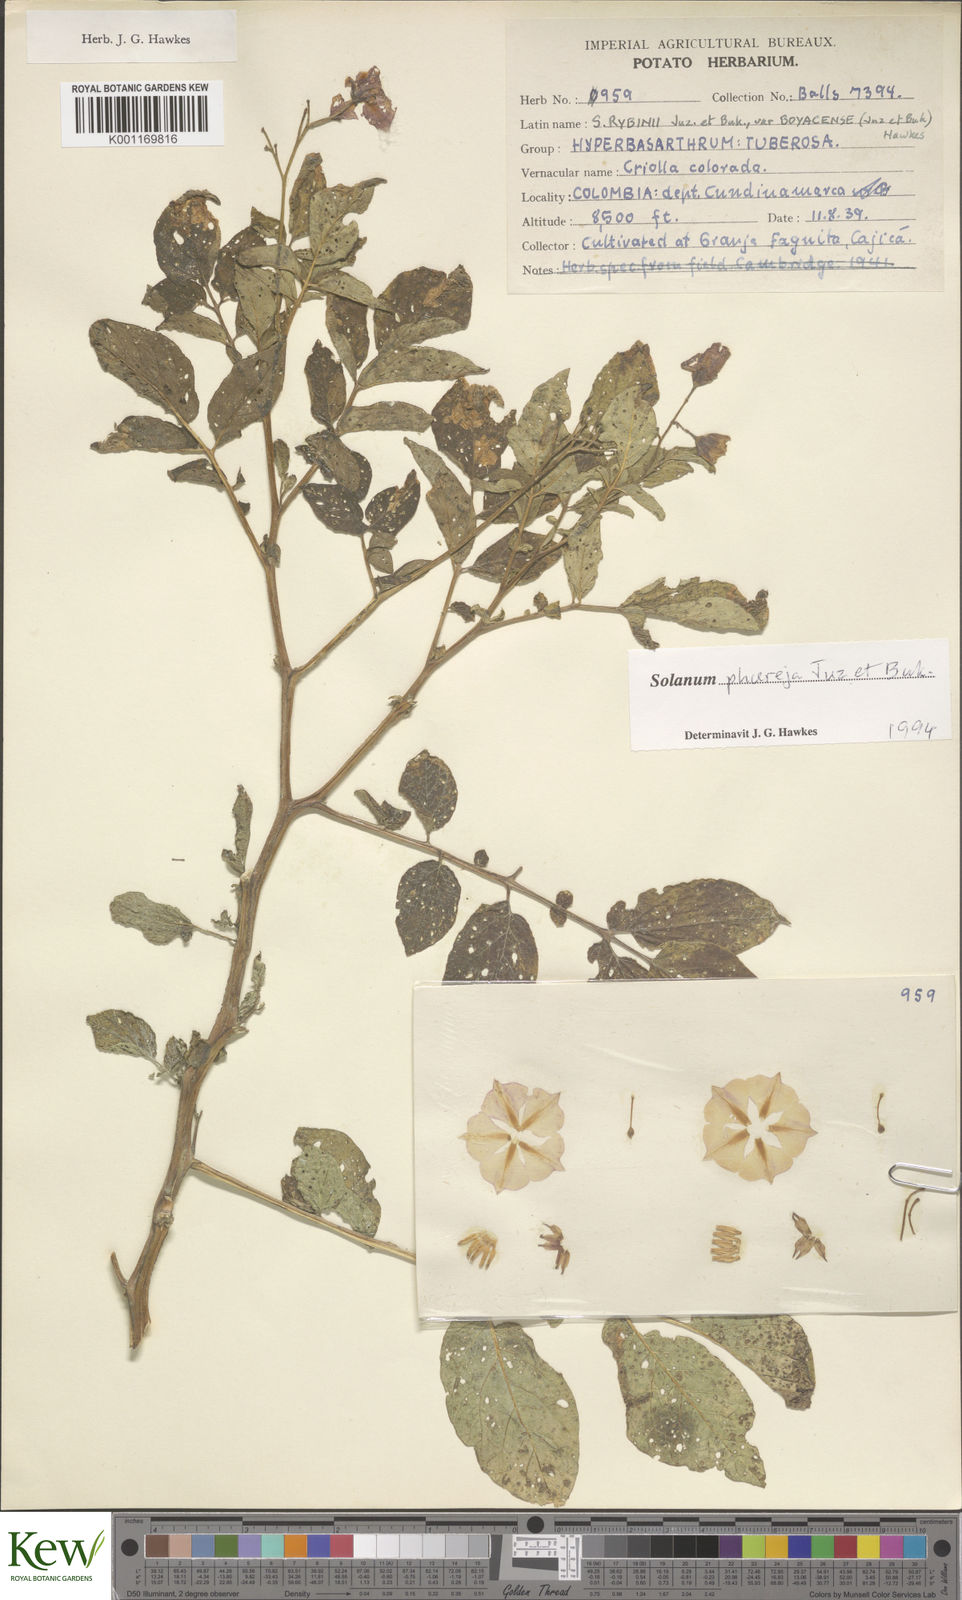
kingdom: Plantae
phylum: Tracheophyta
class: Magnoliopsida
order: Solanales
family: Solanaceae
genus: Solanum
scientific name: Solanum tuberosum
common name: Potato
